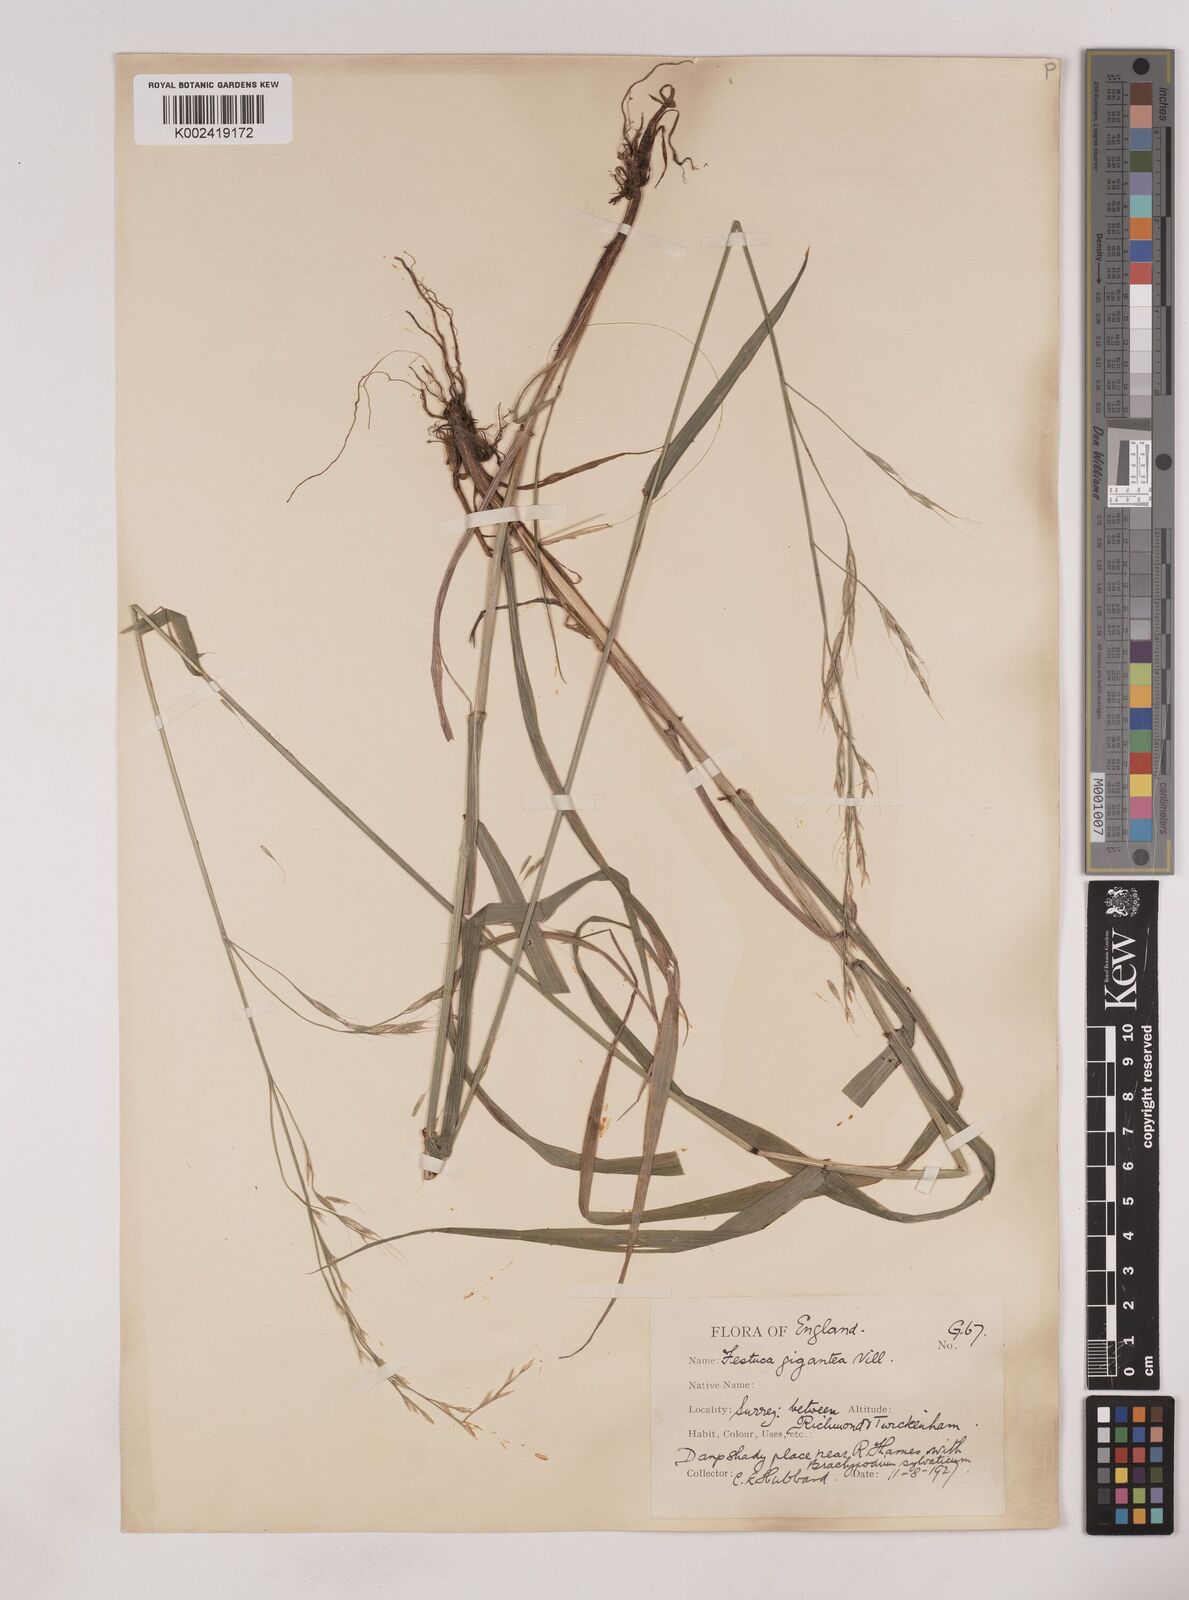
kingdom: Plantae
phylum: Tracheophyta
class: Liliopsida
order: Poales
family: Poaceae
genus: Lolium
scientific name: Lolium giganteum
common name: Giant fescue
